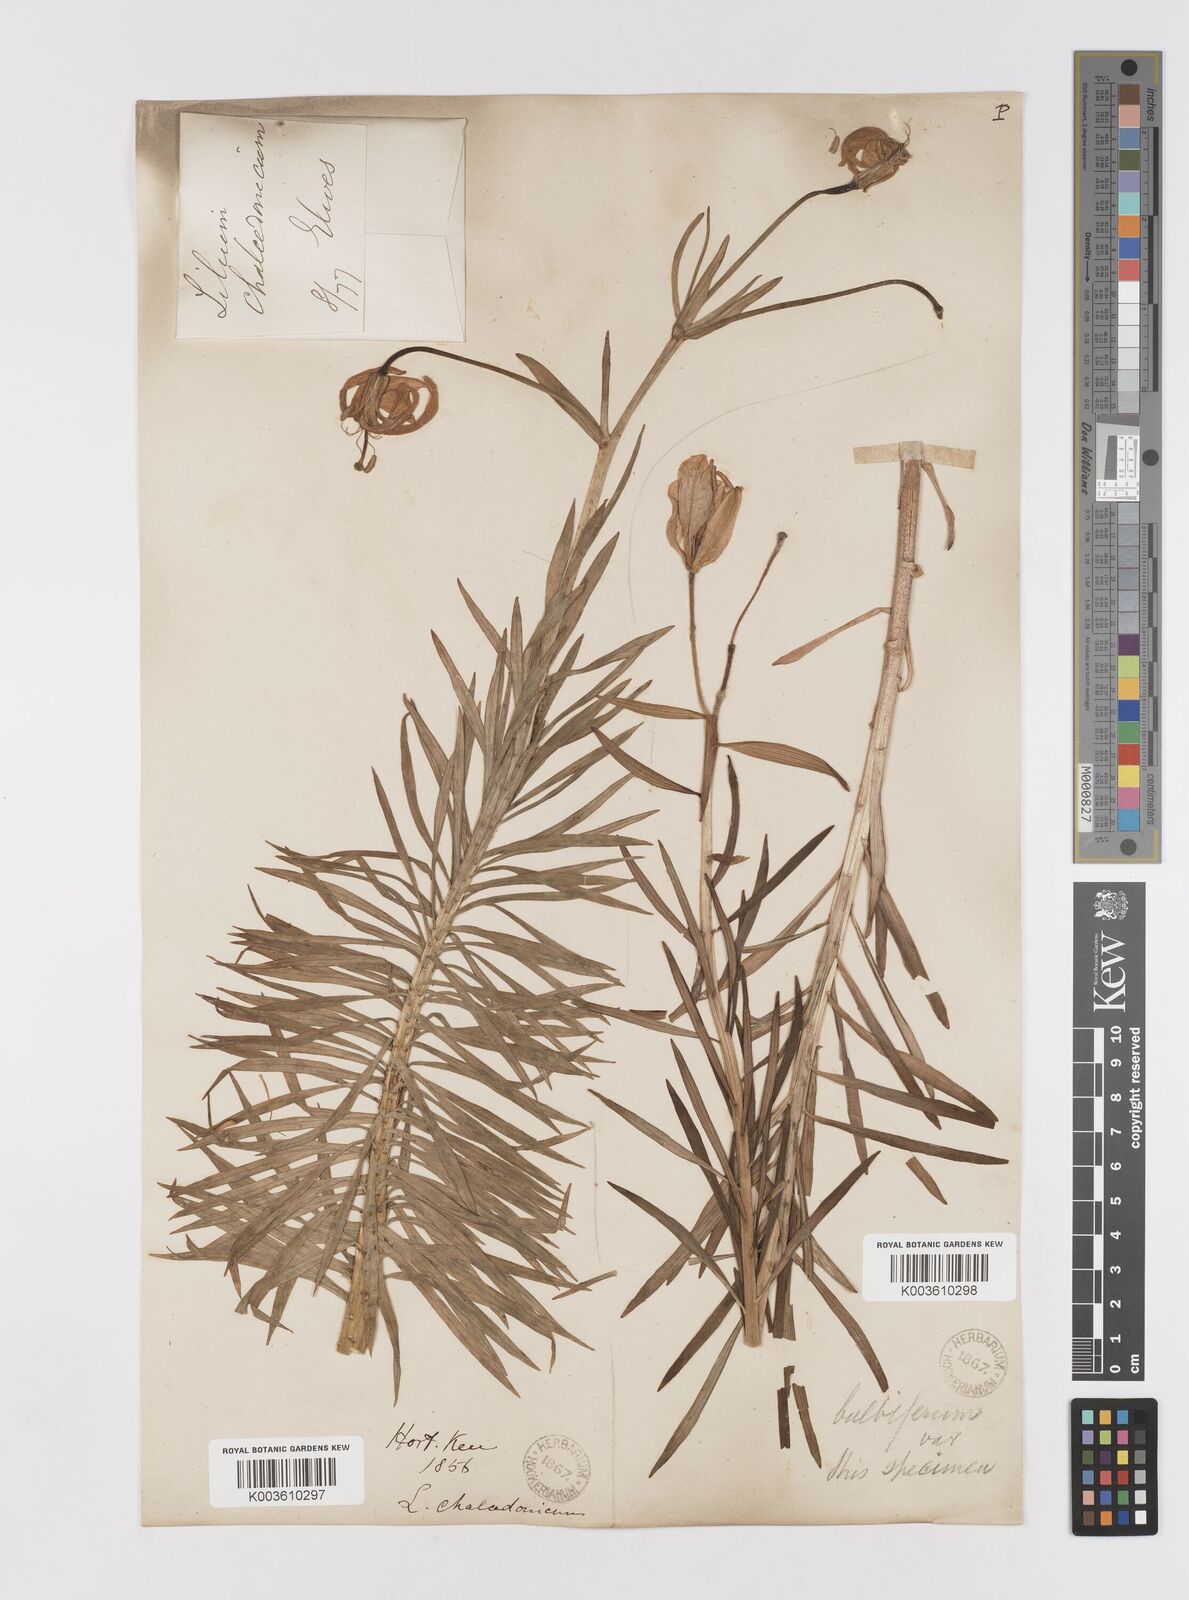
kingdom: Plantae
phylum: Tracheophyta
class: Liliopsida
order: Liliales
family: Liliaceae
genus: Lilium
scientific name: Lilium chalcedonicum
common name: Red martagon of constantinople
